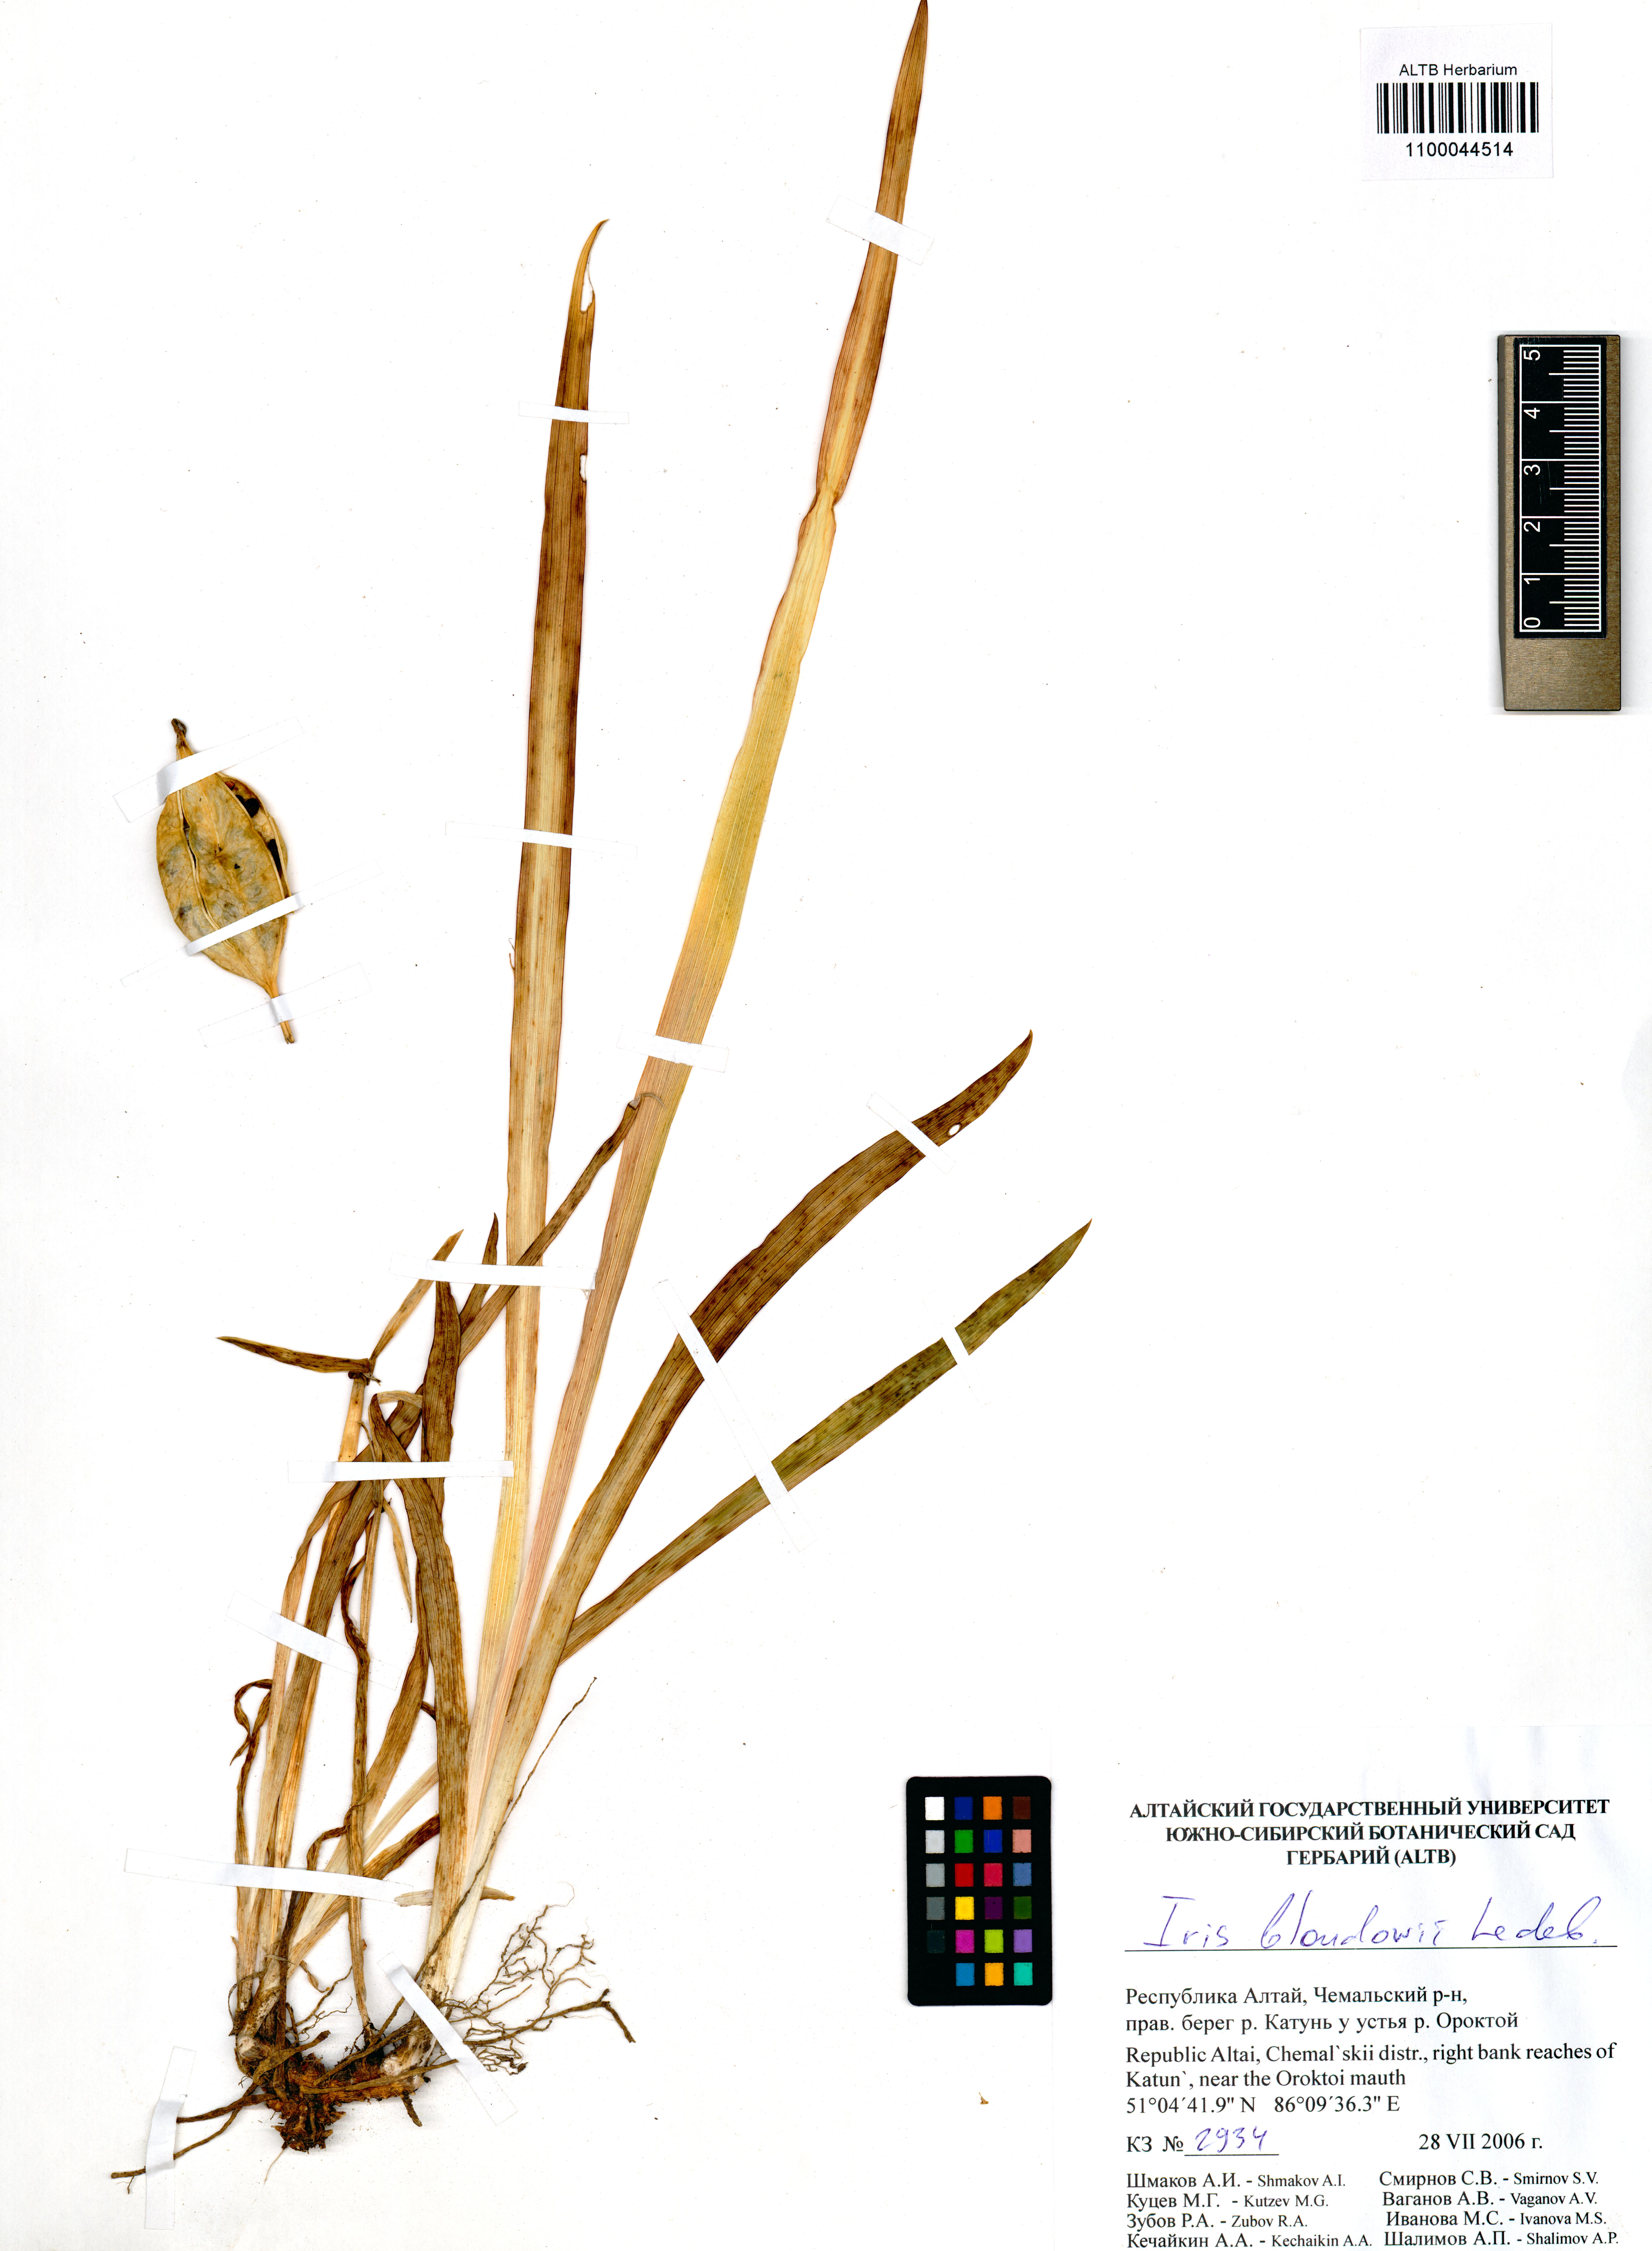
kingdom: Plantae
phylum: Tracheophyta
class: Liliopsida
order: Asparagales
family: Iridaceae
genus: Iris
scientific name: Iris bloudowii
